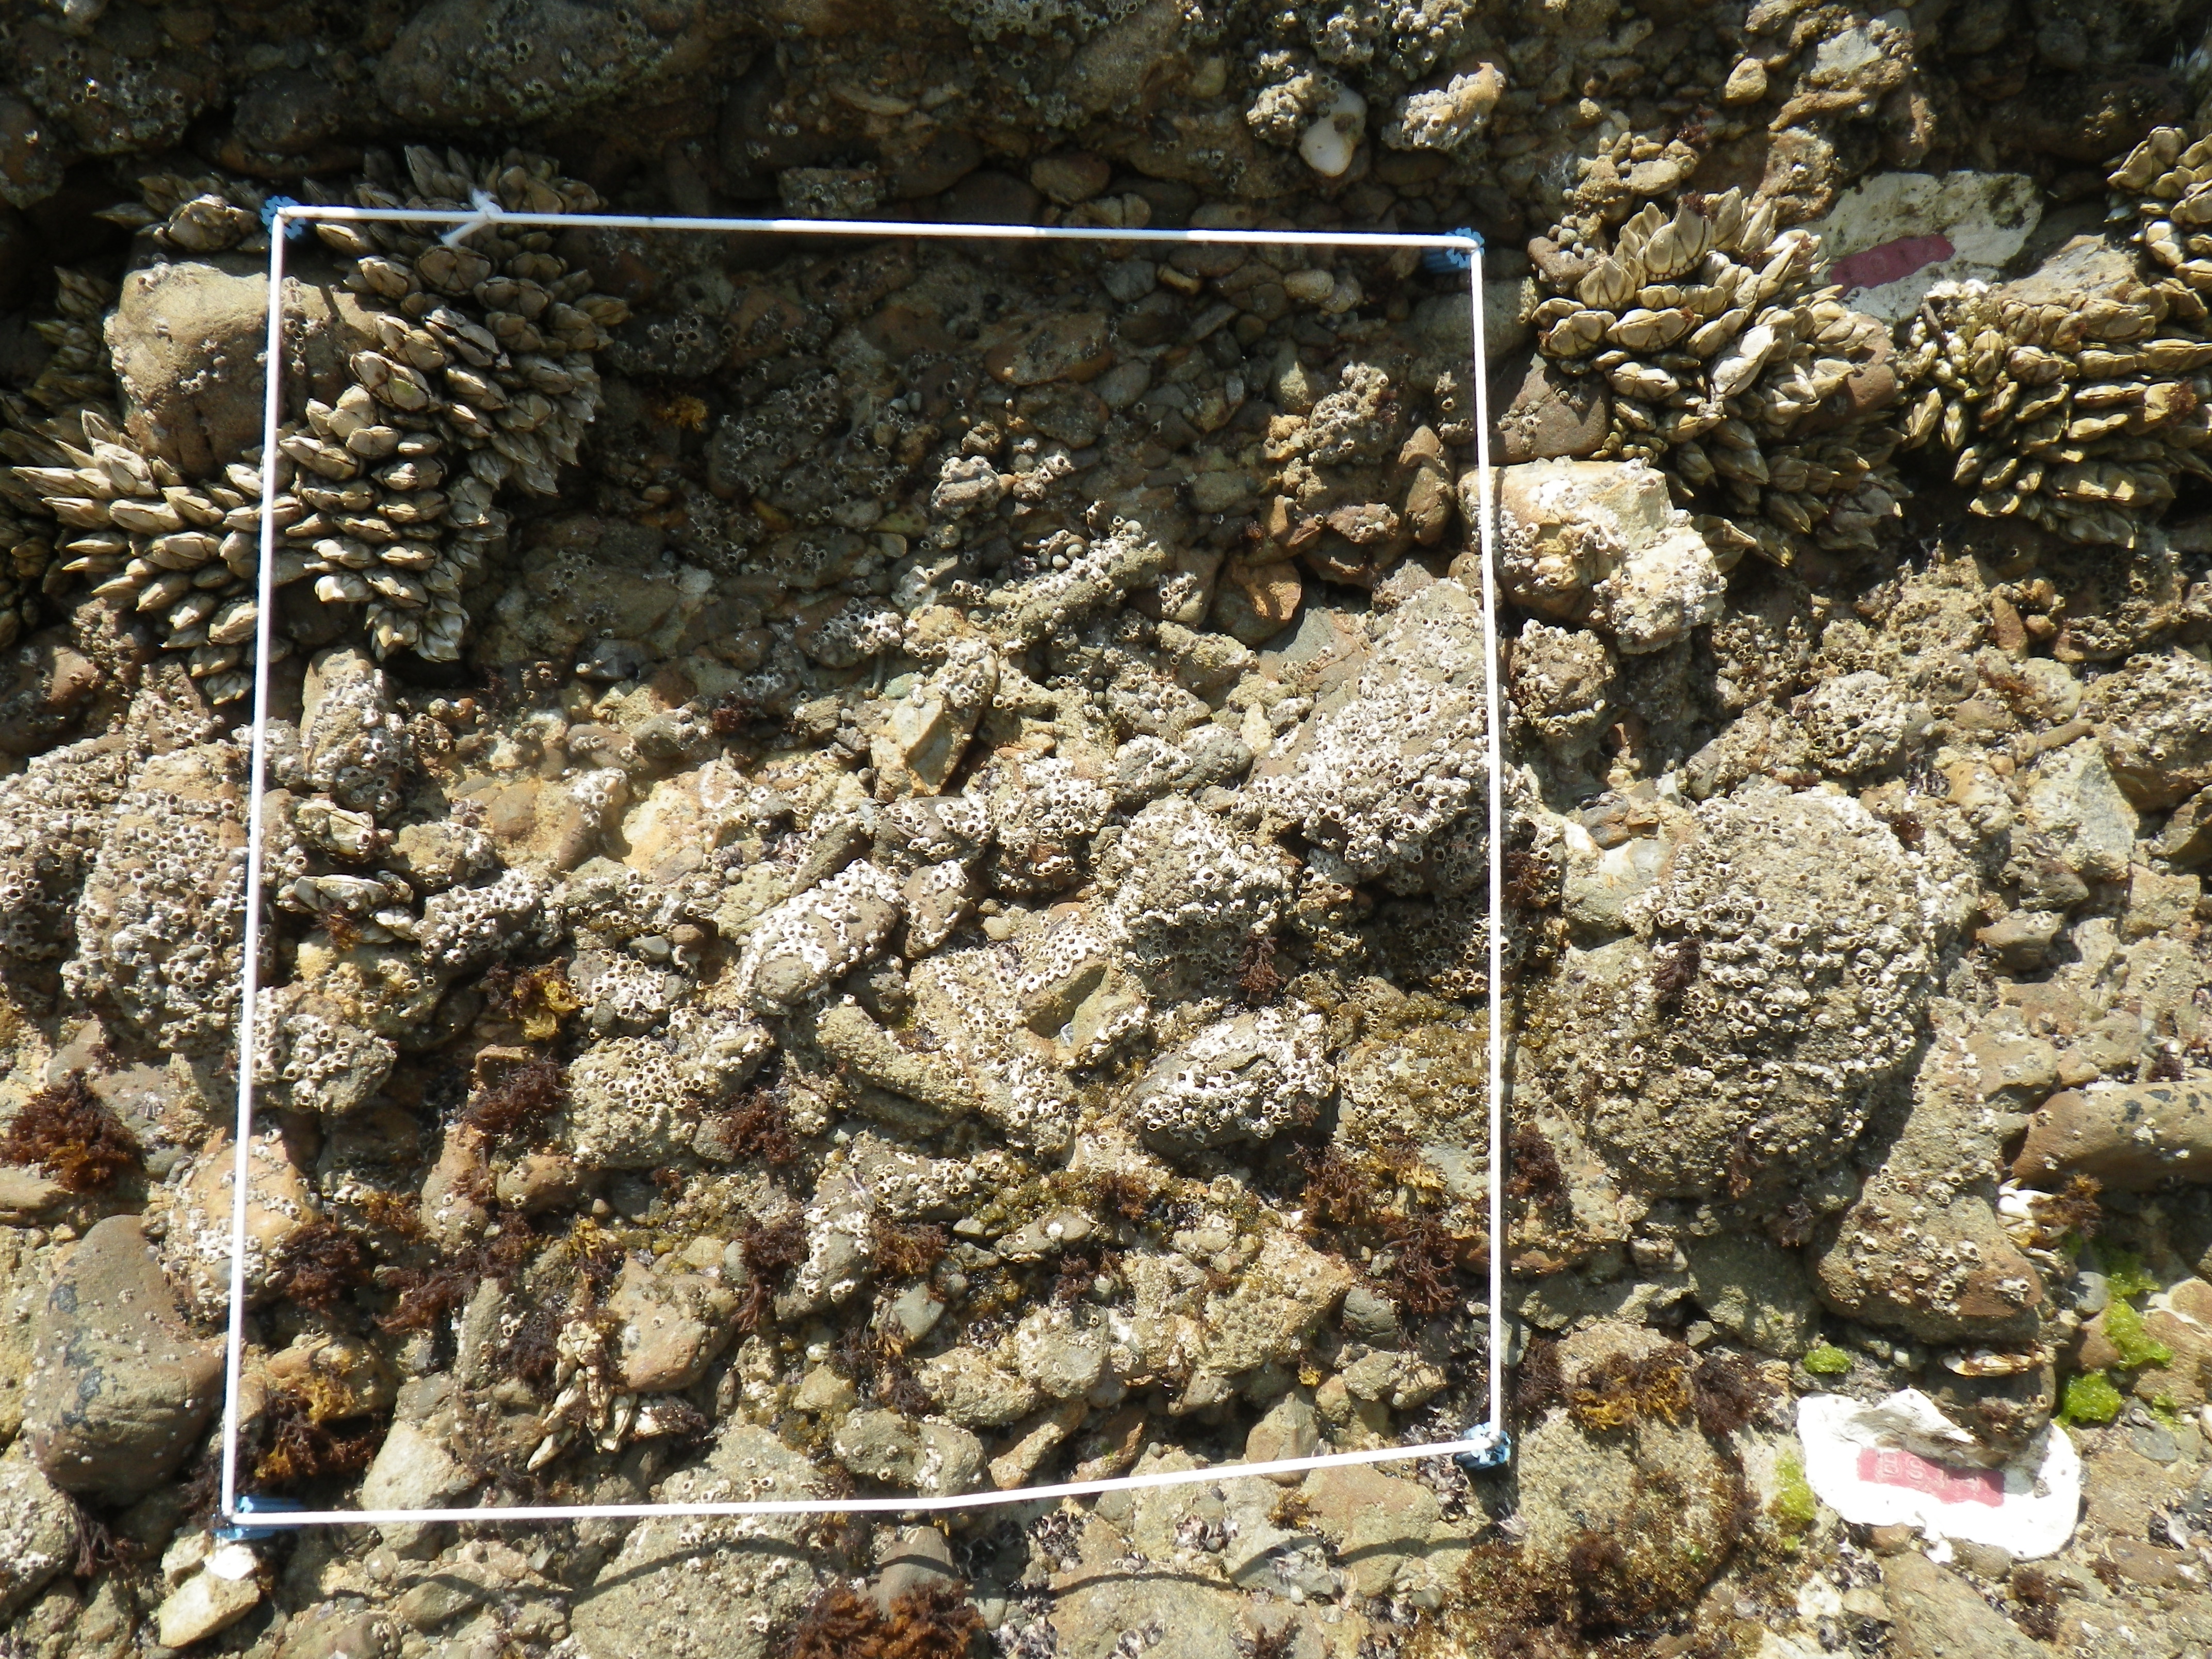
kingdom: Animalia
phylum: Arthropoda
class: Maxillopoda
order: Sessilia
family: Chthamalidae
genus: Chthamalus
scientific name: Chthamalus challengeri
